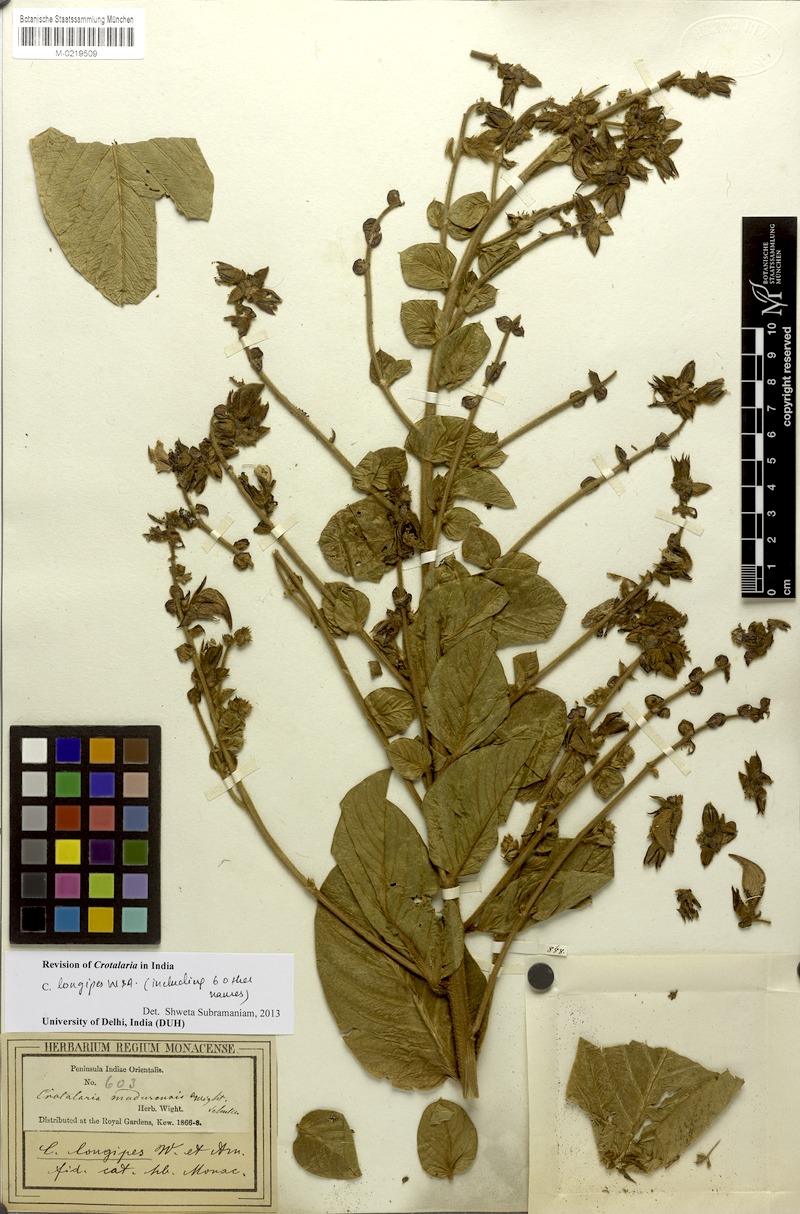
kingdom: Plantae
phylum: Tracheophyta
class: Magnoliopsida
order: Fabales
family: Fabaceae
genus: Crotalaria
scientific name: Crotalaria longipes
